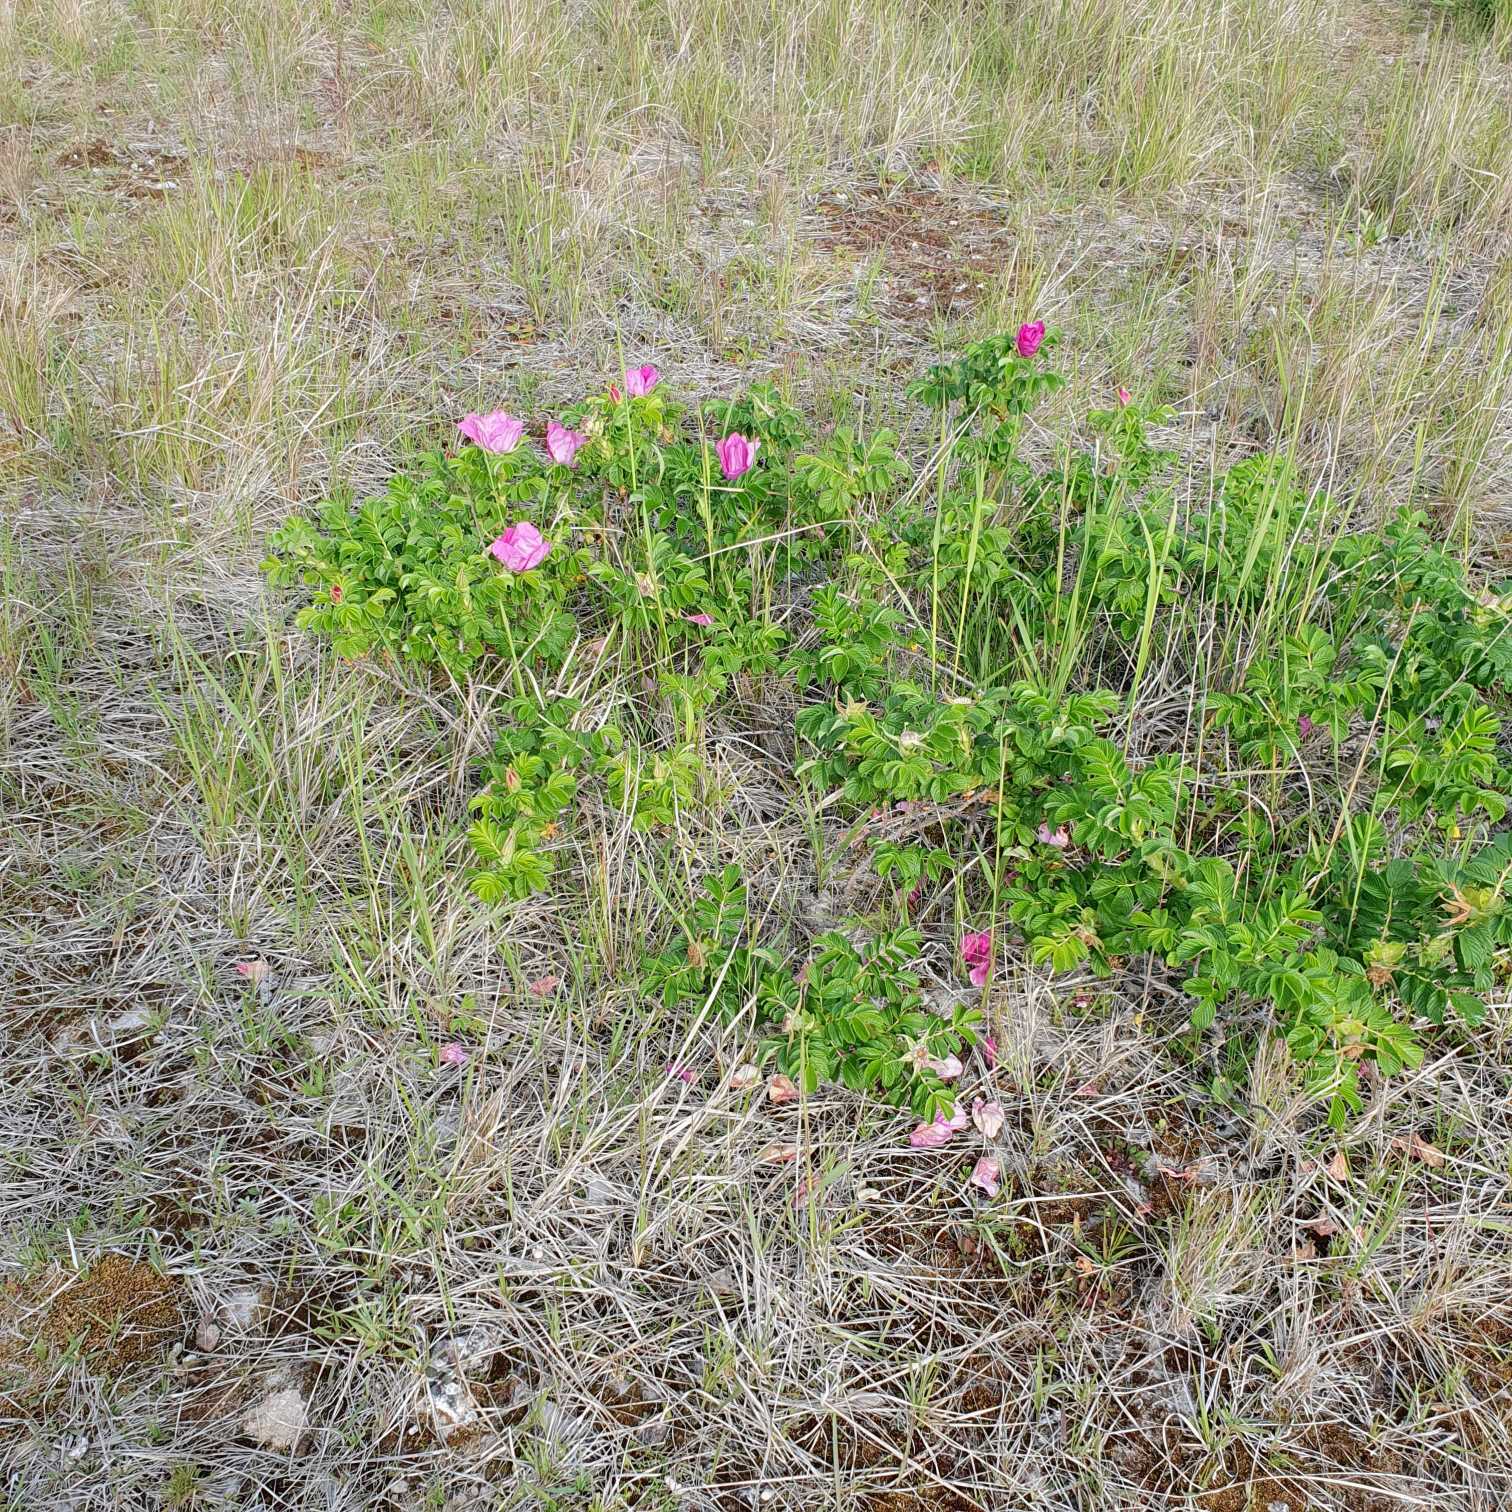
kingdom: Plantae
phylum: Tracheophyta
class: Magnoliopsida
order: Rosales
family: Rosaceae
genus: Rosa
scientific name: Rosa rugosa
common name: Rynket rose
